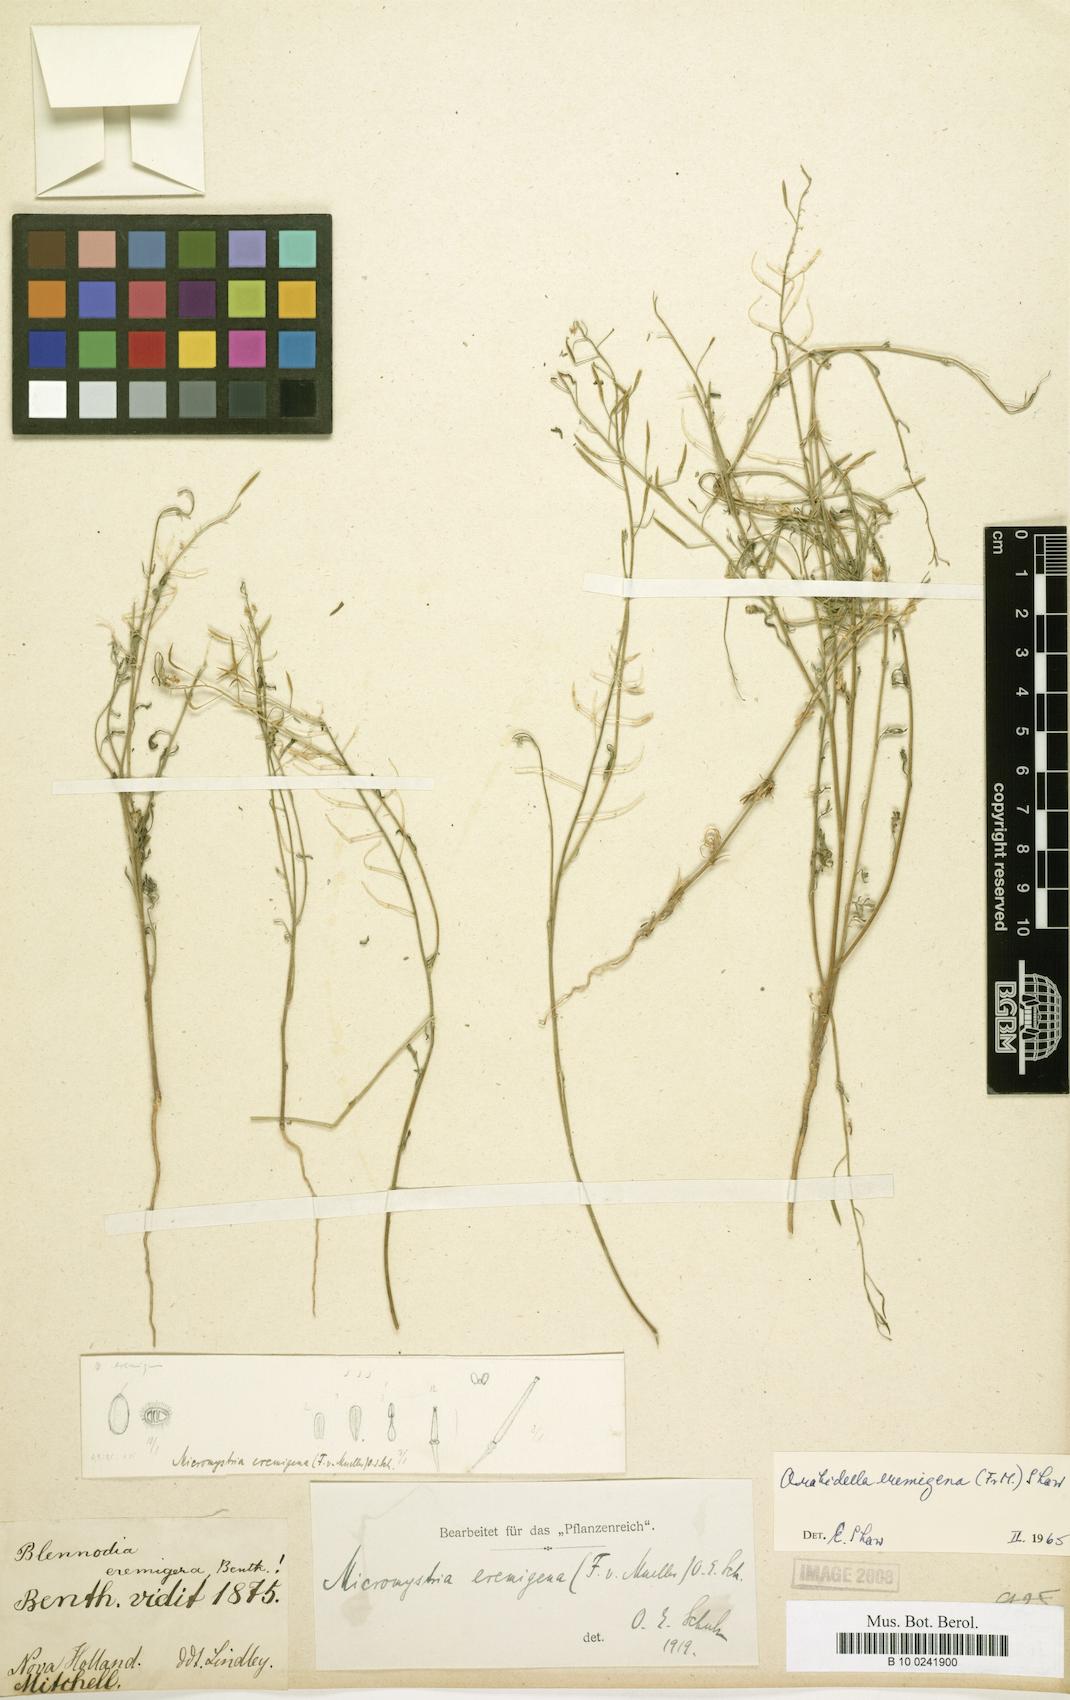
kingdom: Plantae
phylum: Tracheophyta
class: Magnoliopsida
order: Brassicales
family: Brassicaceae
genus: Arabidella
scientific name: Arabidella eremigena
